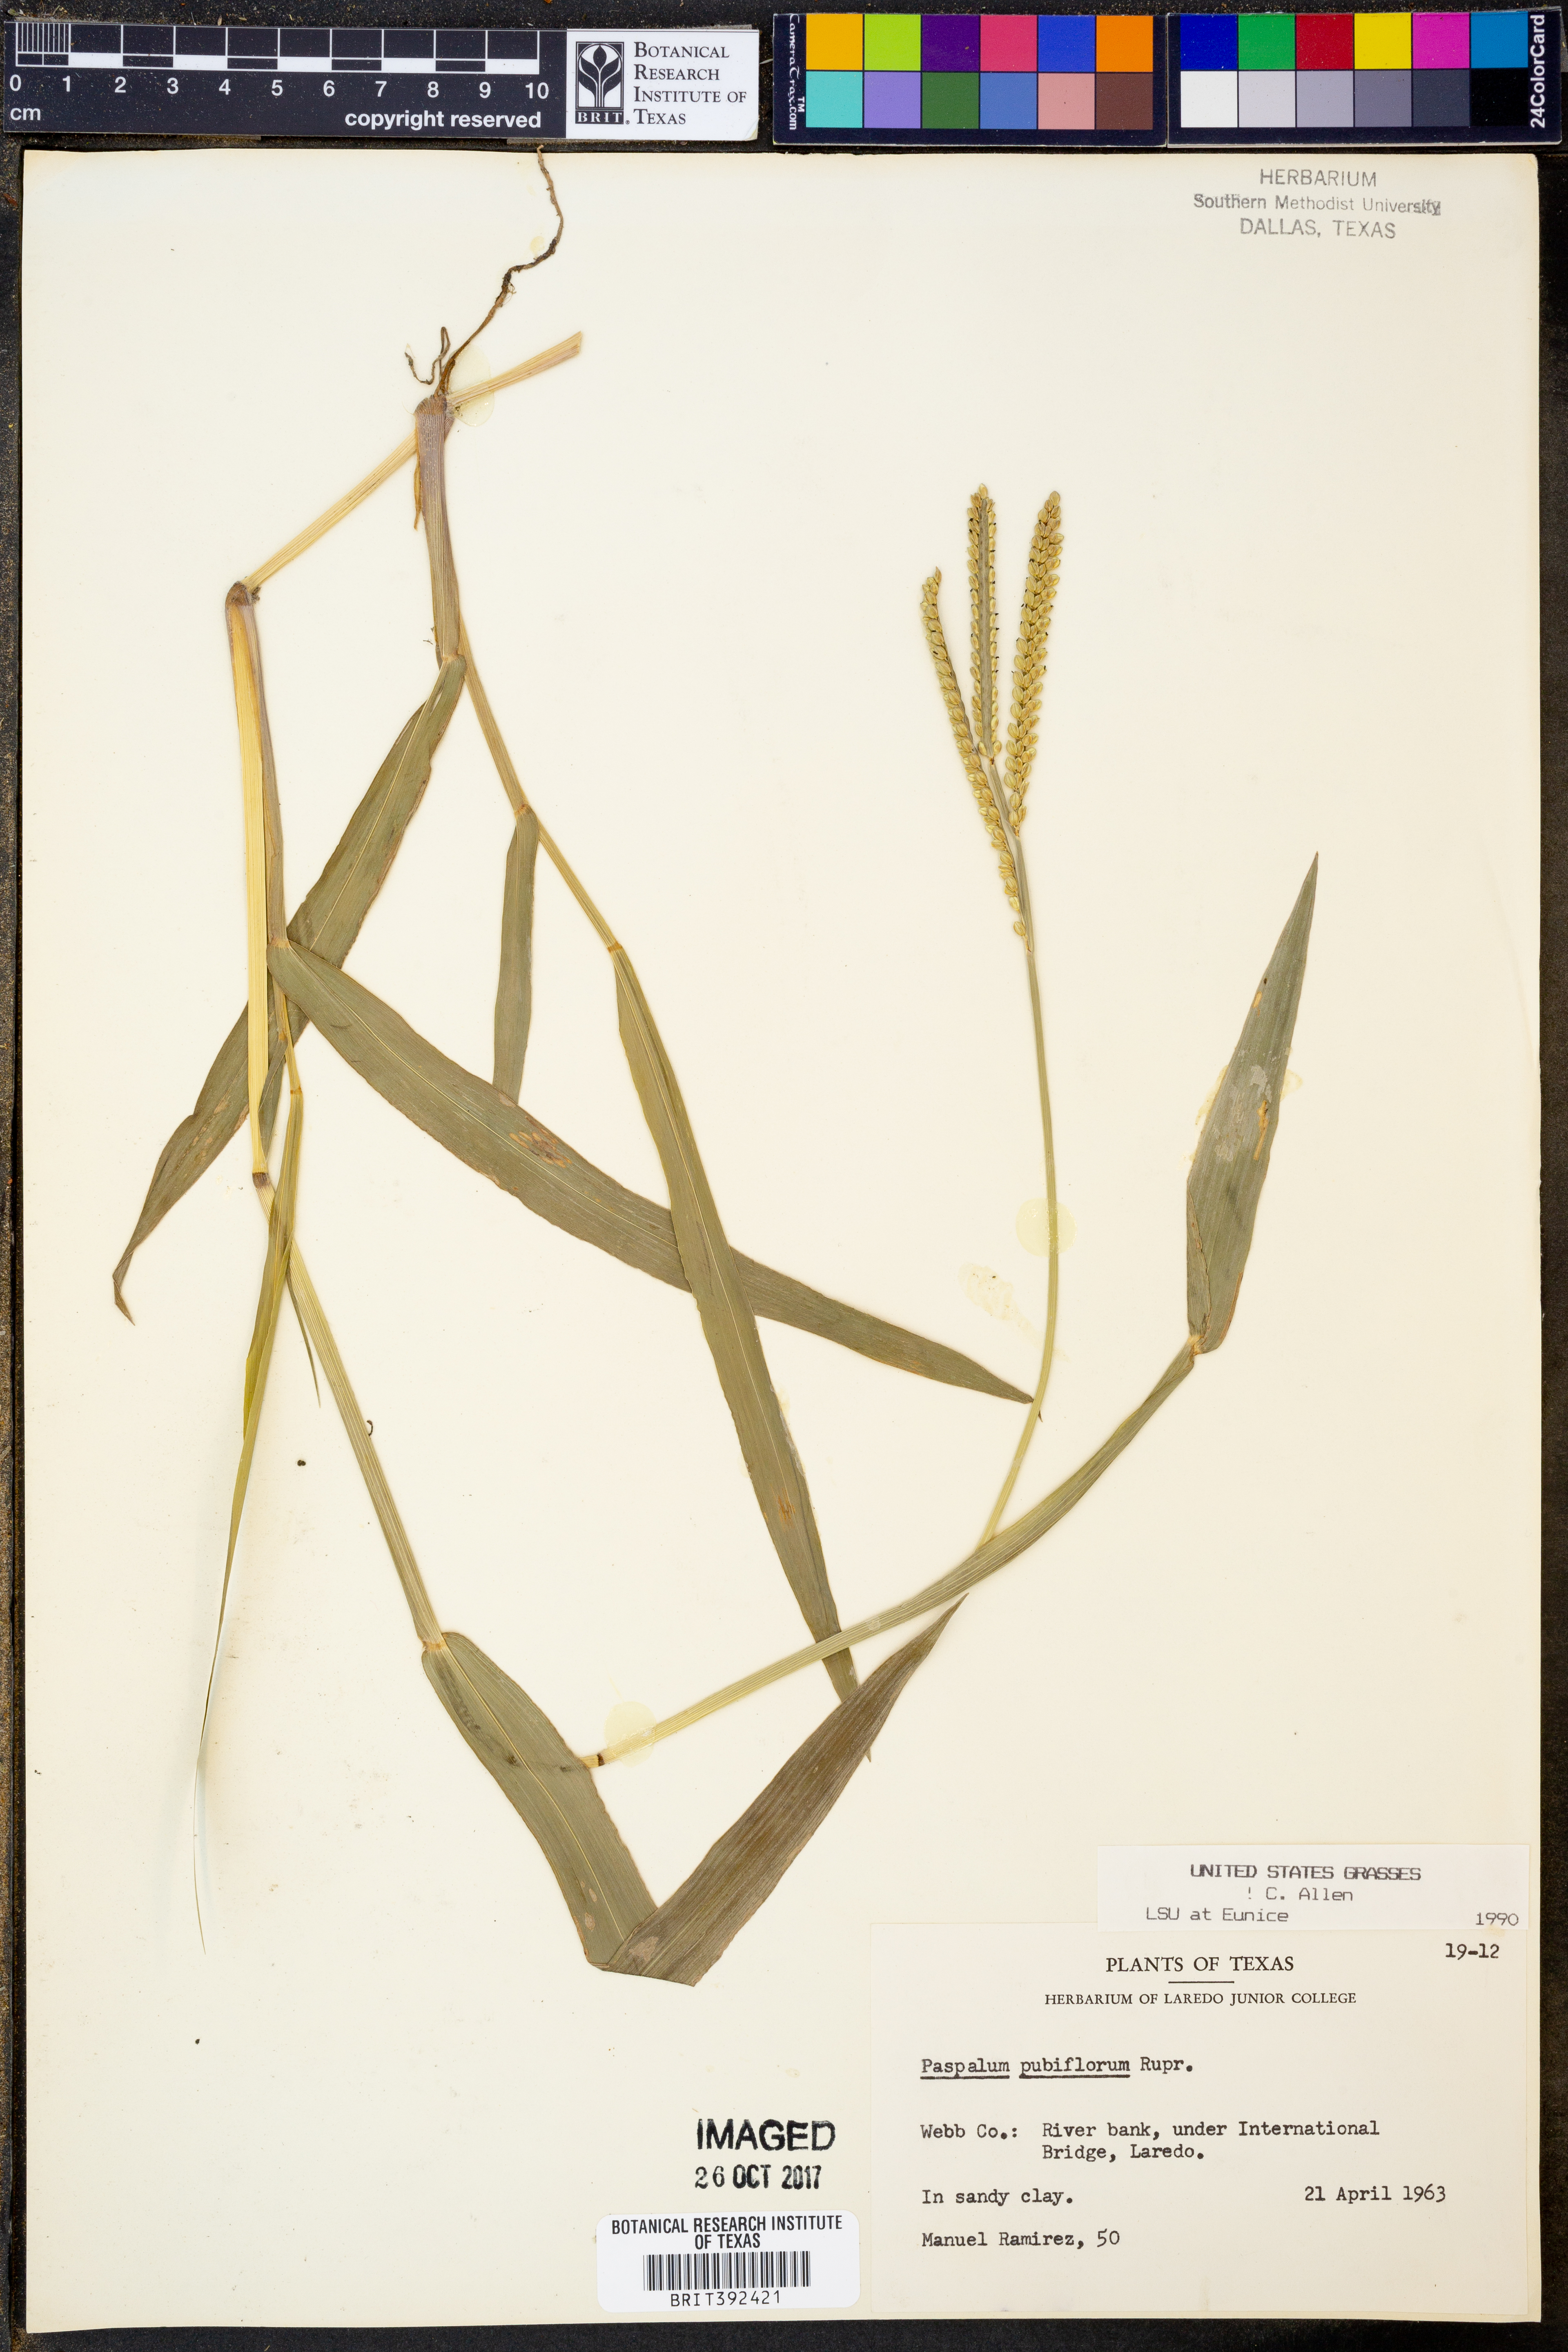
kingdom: Plantae
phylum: Tracheophyta
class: Liliopsida
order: Poales
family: Poaceae
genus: Paspalum
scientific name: Paspalum pubiflorum
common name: Hairy-seed paspalum
